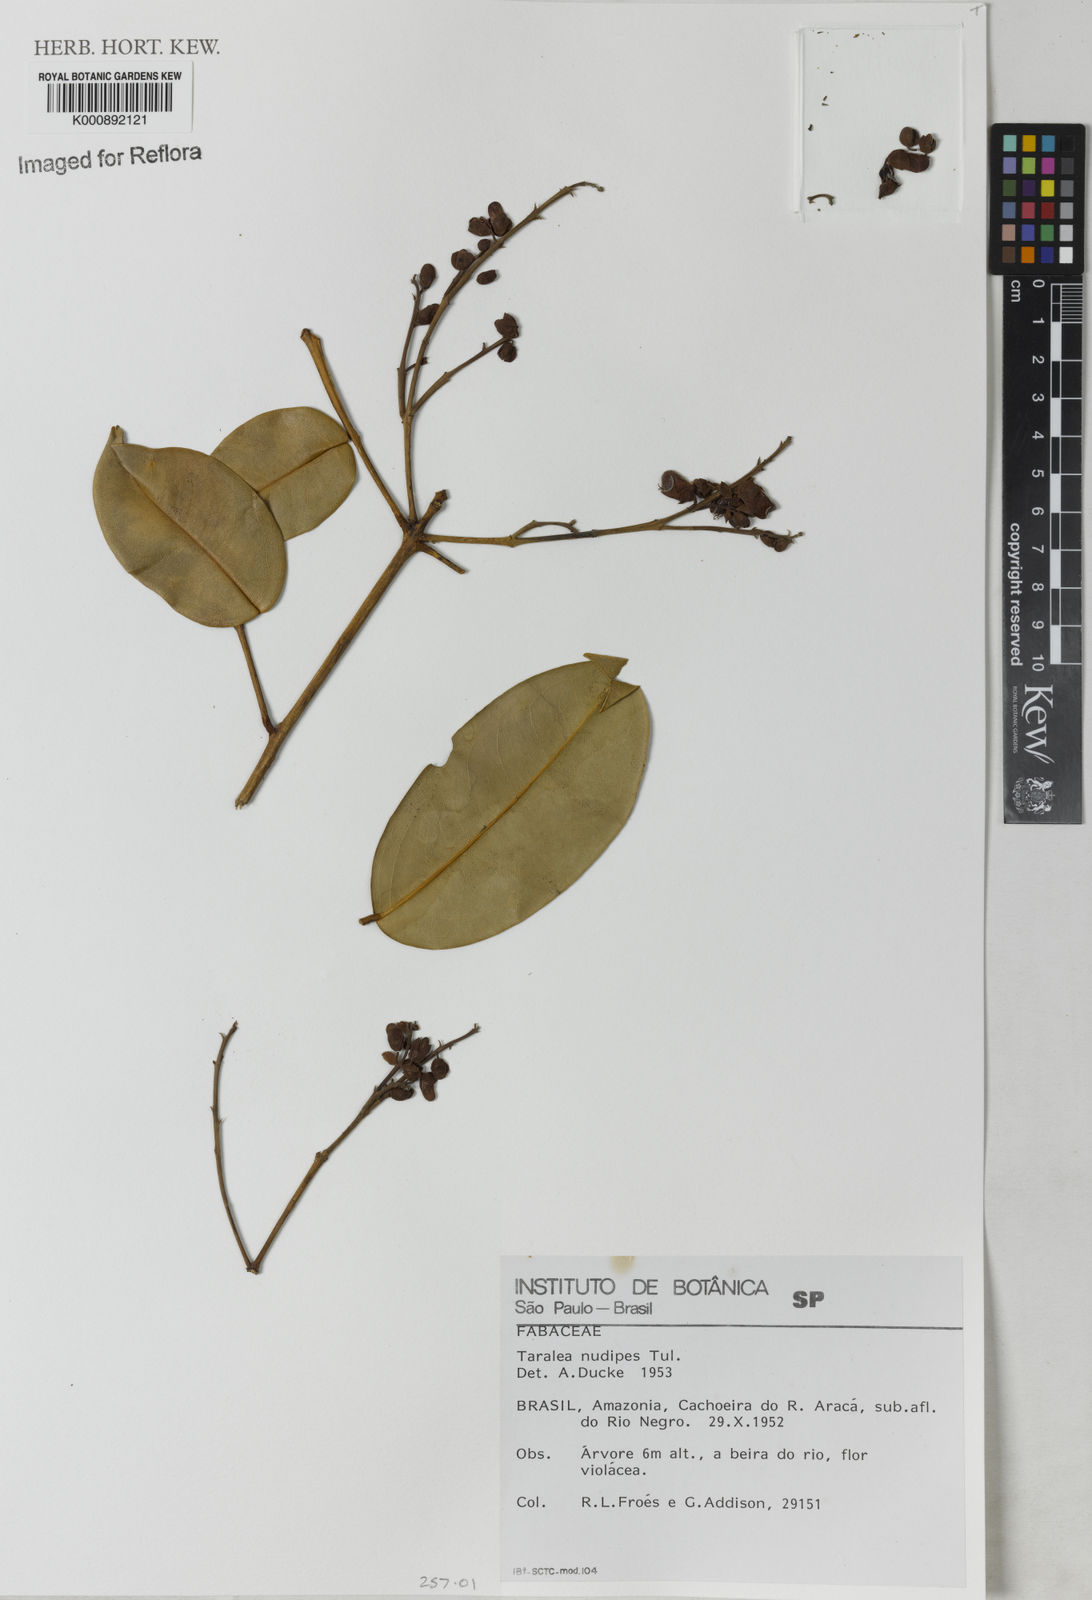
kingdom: Plantae
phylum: Tracheophyta
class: Magnoliopsida
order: Fabales
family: Fabaceae
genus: Taralea
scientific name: Taralea nudipes
